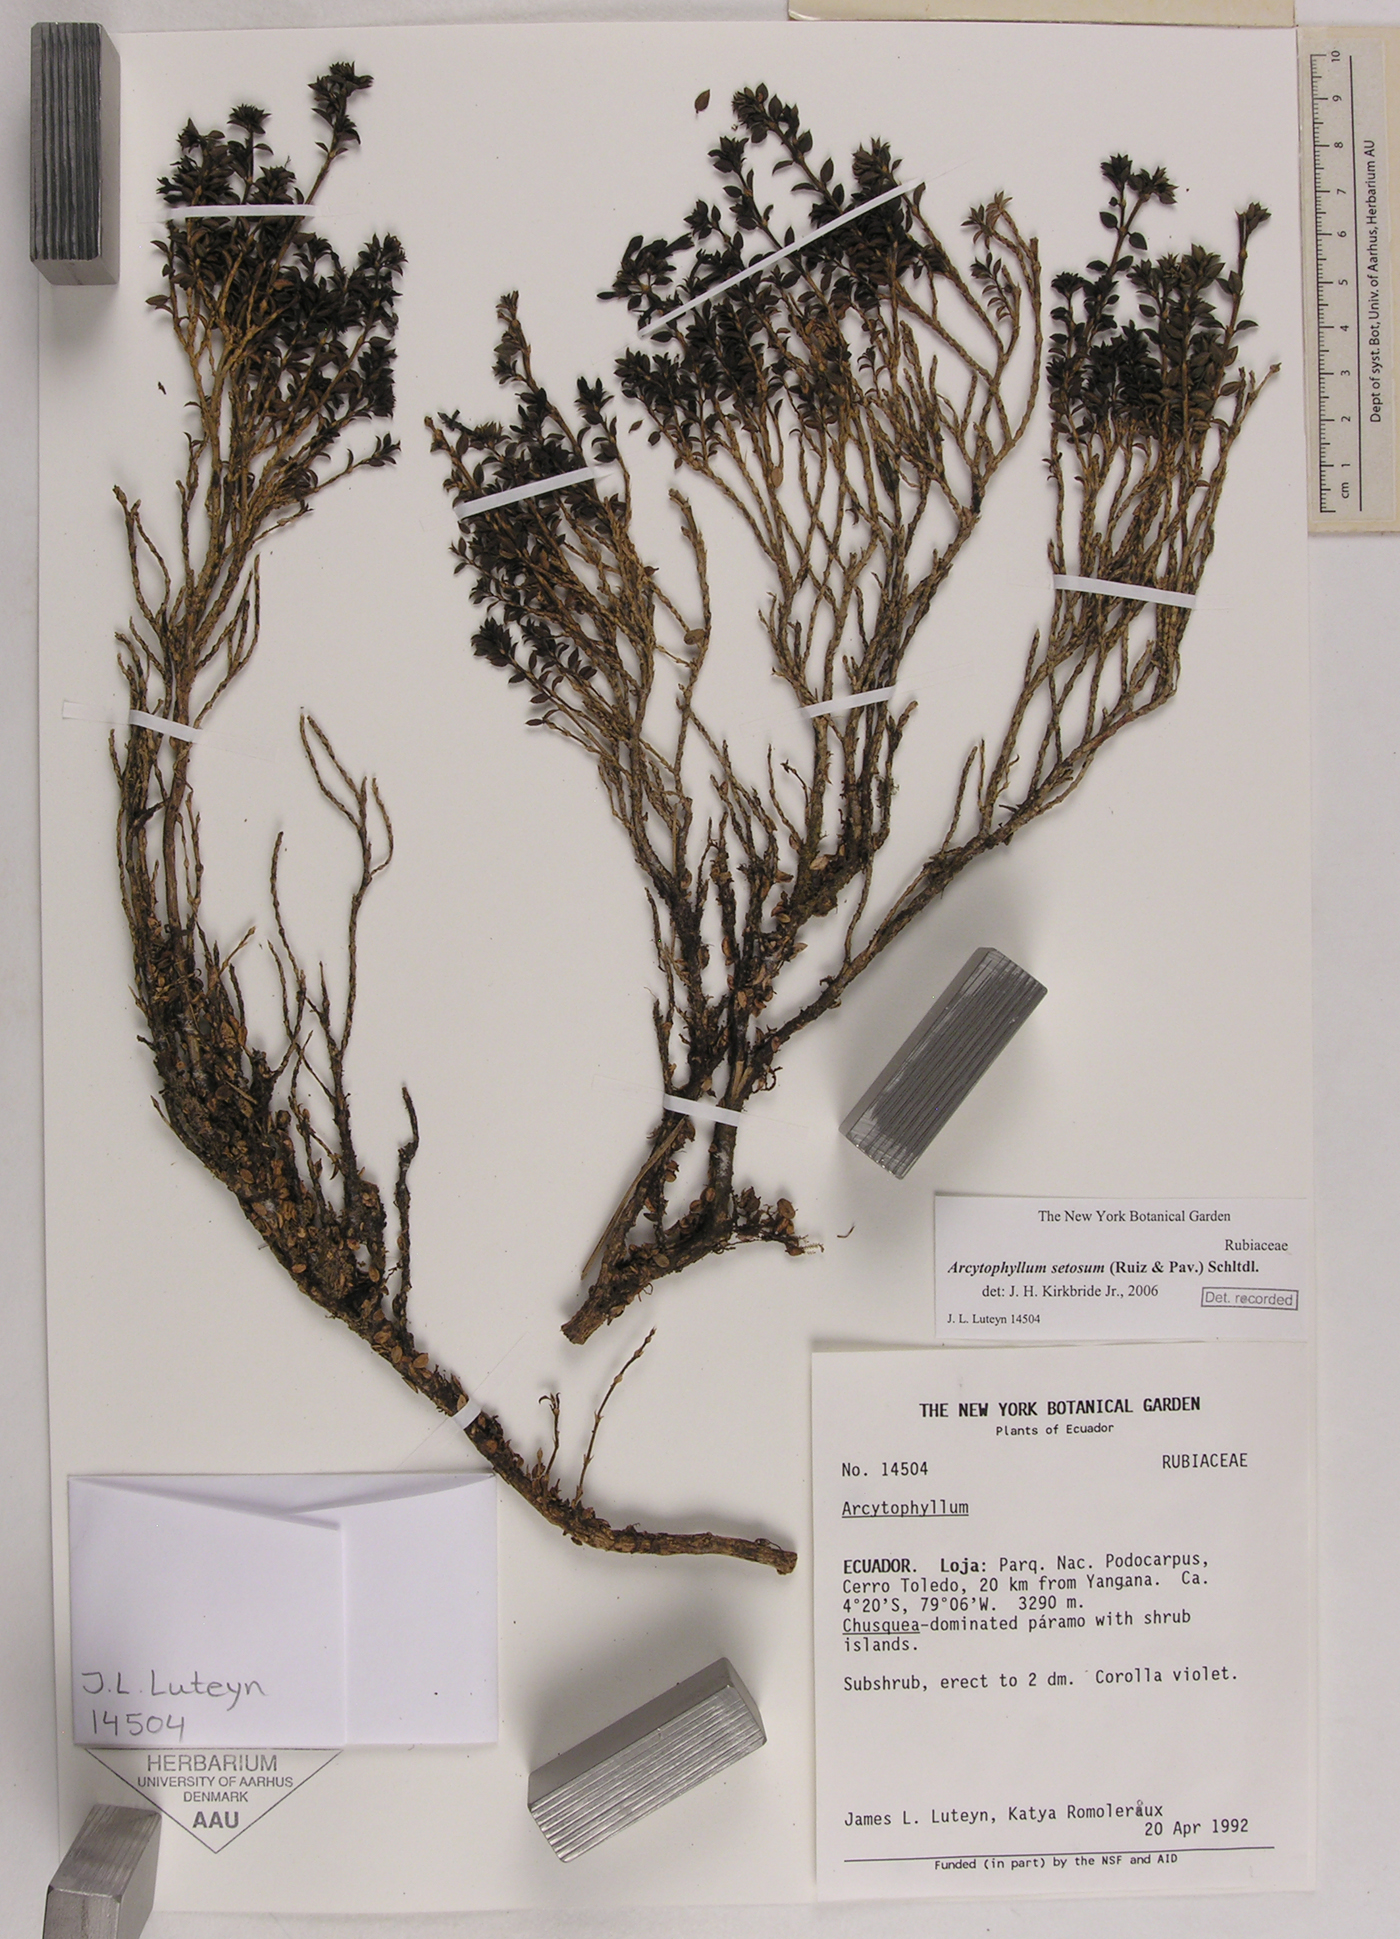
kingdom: Plantae
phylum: Tracheophyta
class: Magnoliopsida
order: Gentianales
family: Rubiaceae
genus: Arcytophyllum
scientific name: Arcytophyllum setosum
